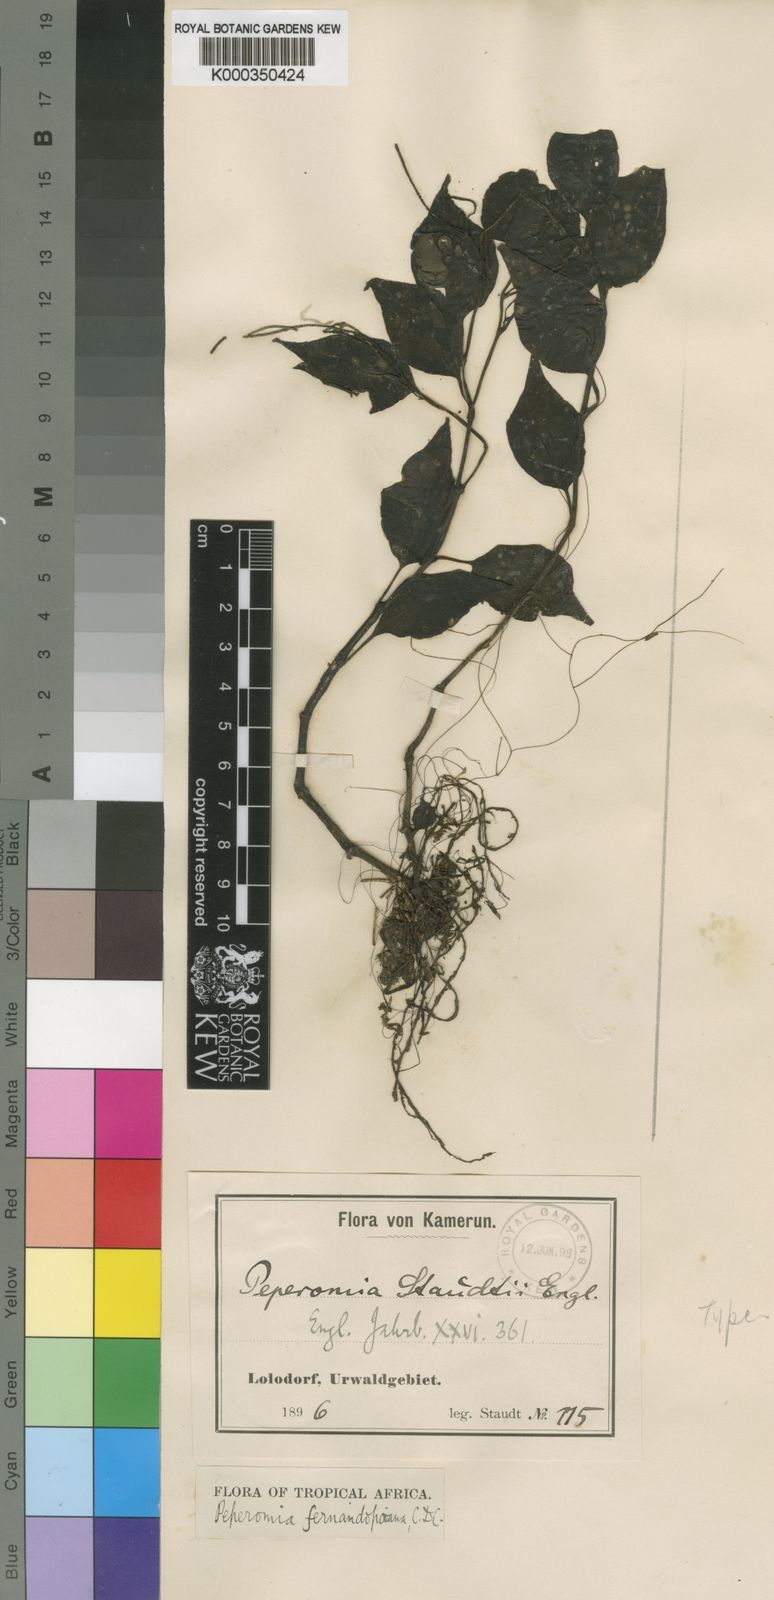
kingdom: Plantae
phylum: Tracheophyta
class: Magnoliopsida
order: Piperales
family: Piperaceae
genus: Peperomia
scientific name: Peperomia fernandopoiana
